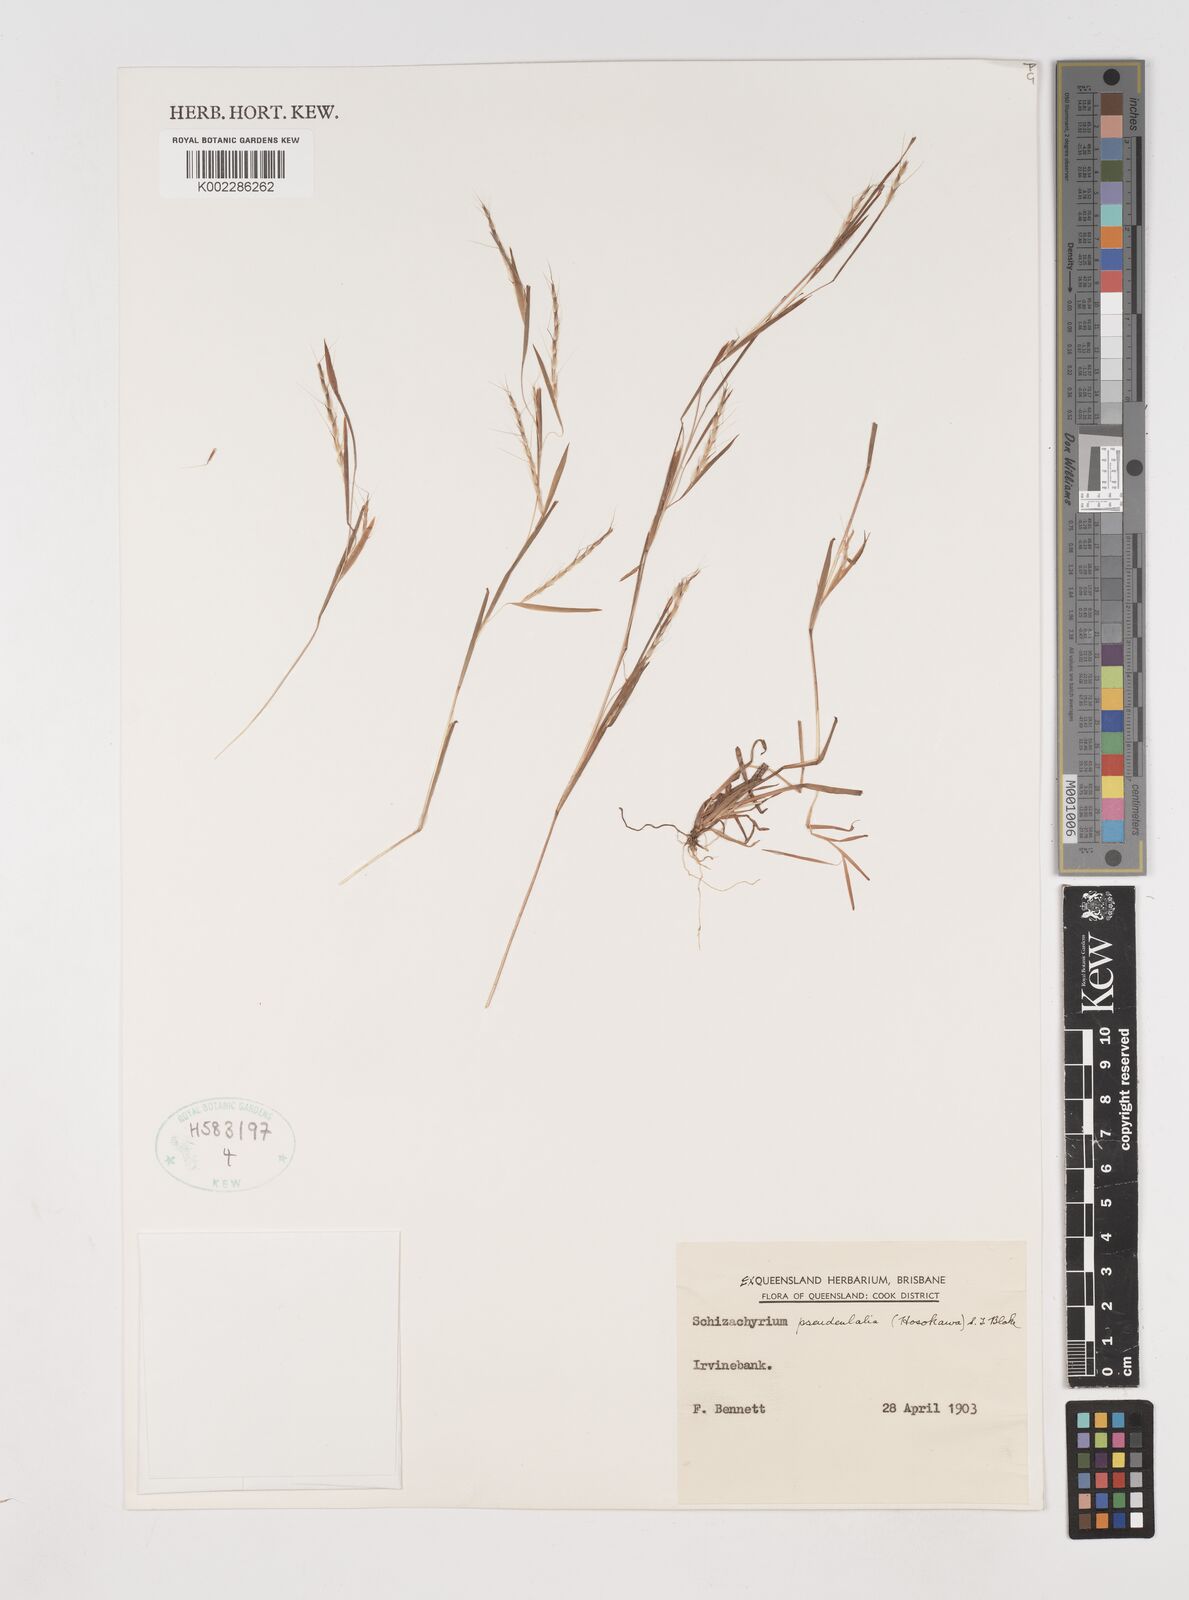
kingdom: Plantae
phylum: Tracheophyta
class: Liliopsida
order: Poales
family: Poaceae
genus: Schizachyrium
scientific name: Schizachyrium pseudeulalia
